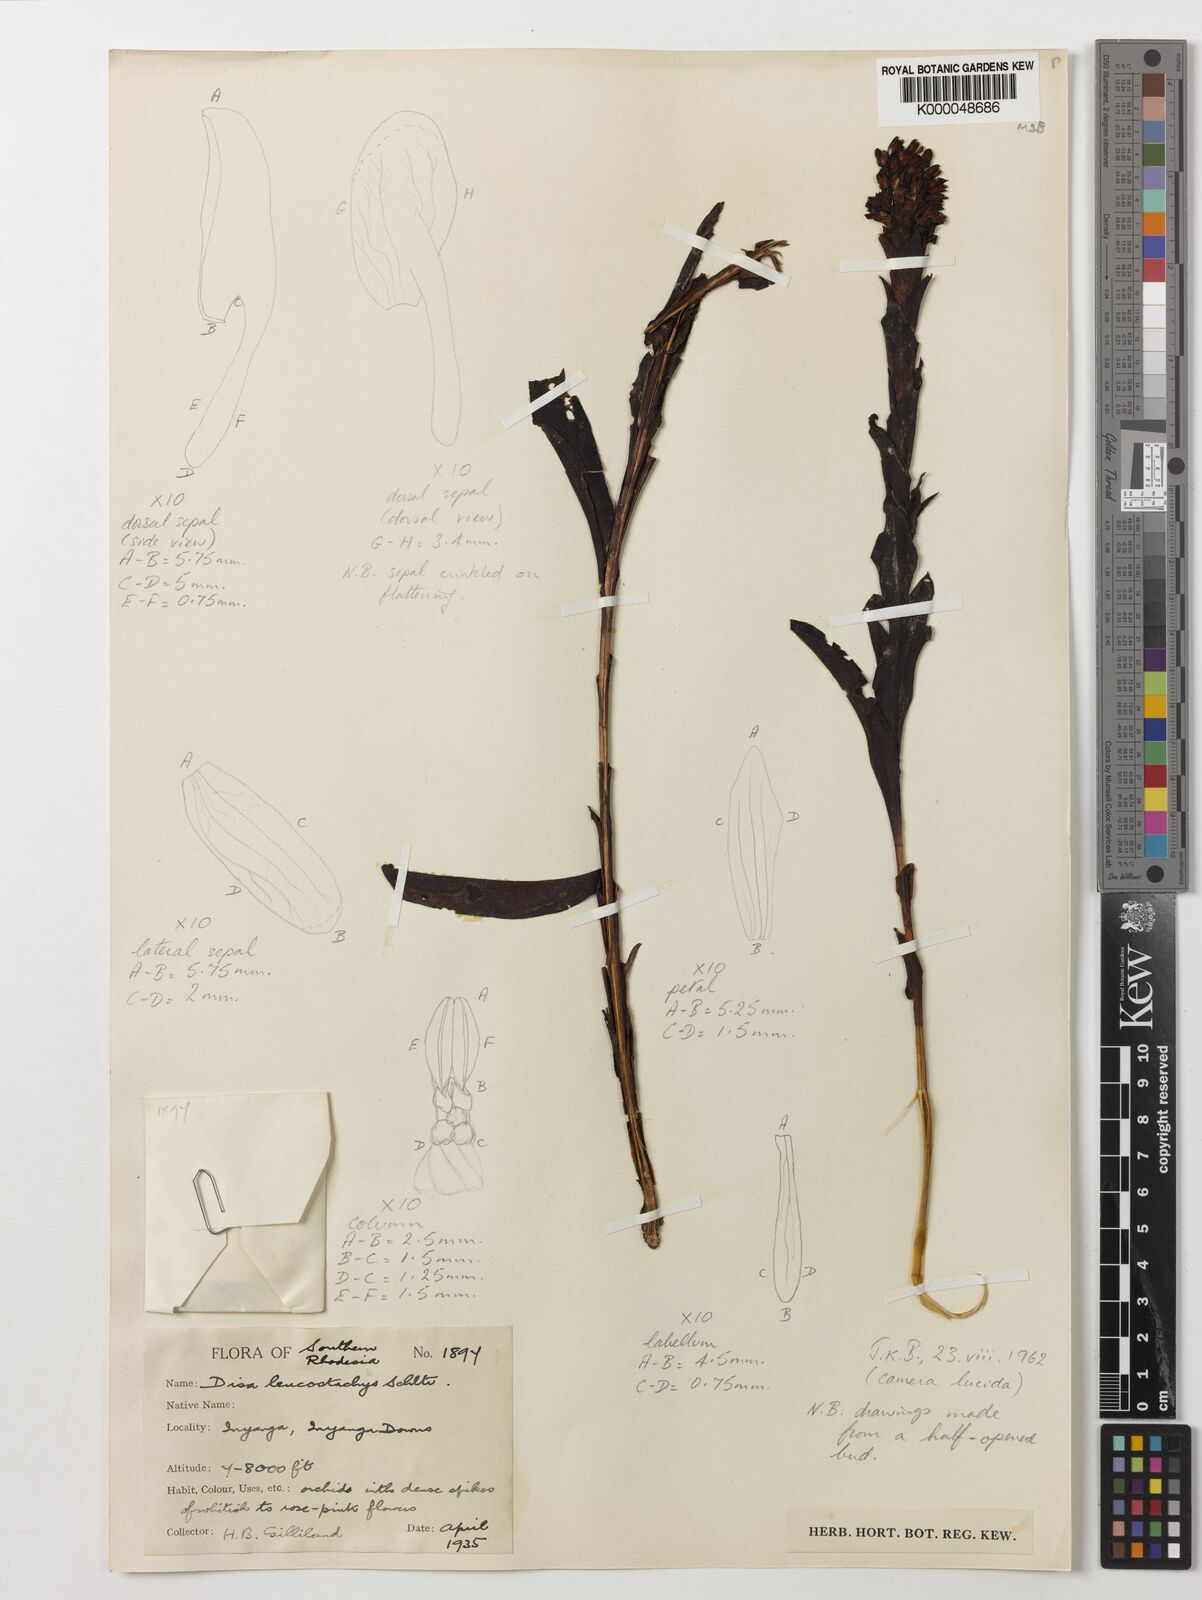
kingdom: Plantae
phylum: Tracheophyta
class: Liliopsida
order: Asparagales
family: Orchidaceae
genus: Disa
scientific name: Disa fragrans
